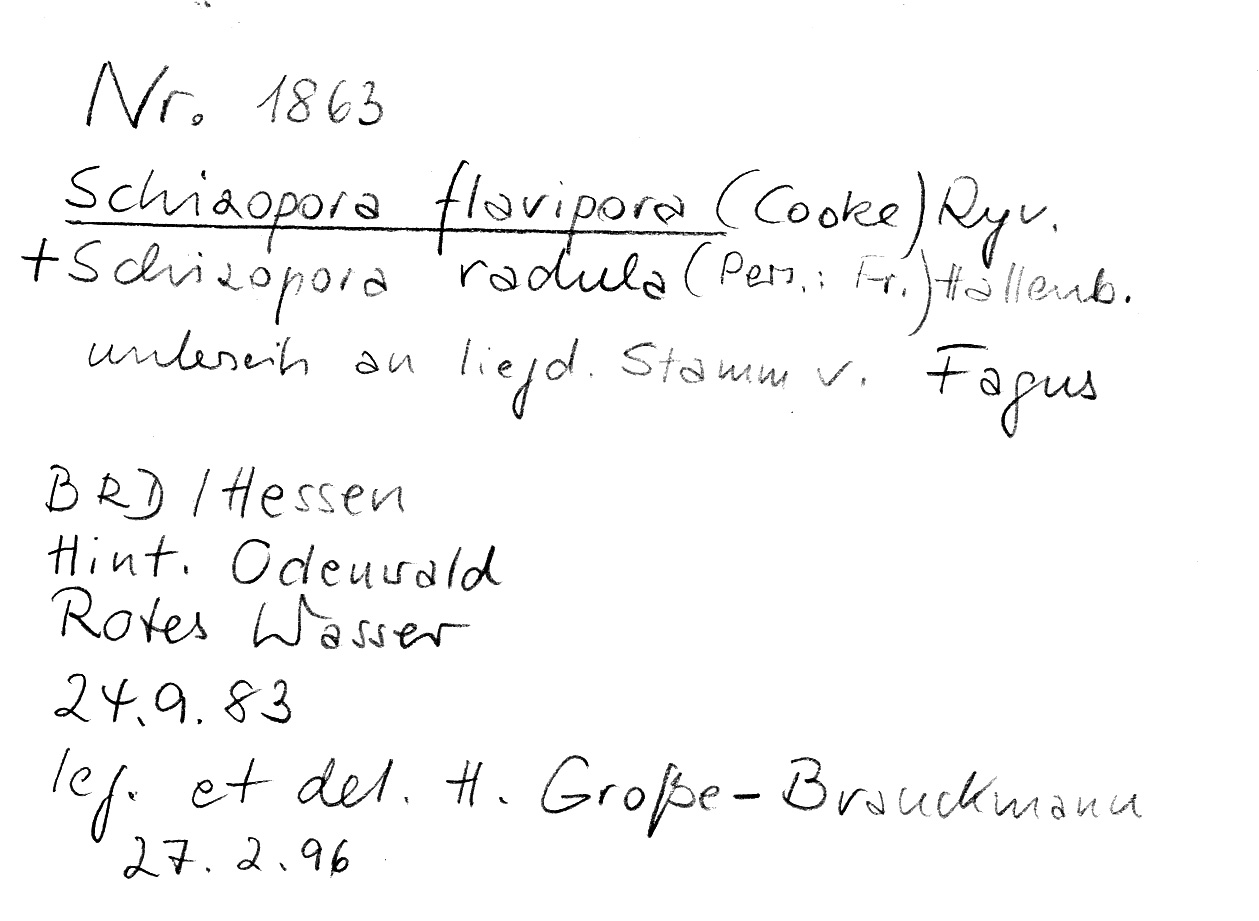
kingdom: Fungi
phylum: Basidiomycota
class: Agaricomycetes
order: Hymenochaetales
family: Schizoporaceae
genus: Xylodon
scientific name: Xylodon raduloides
